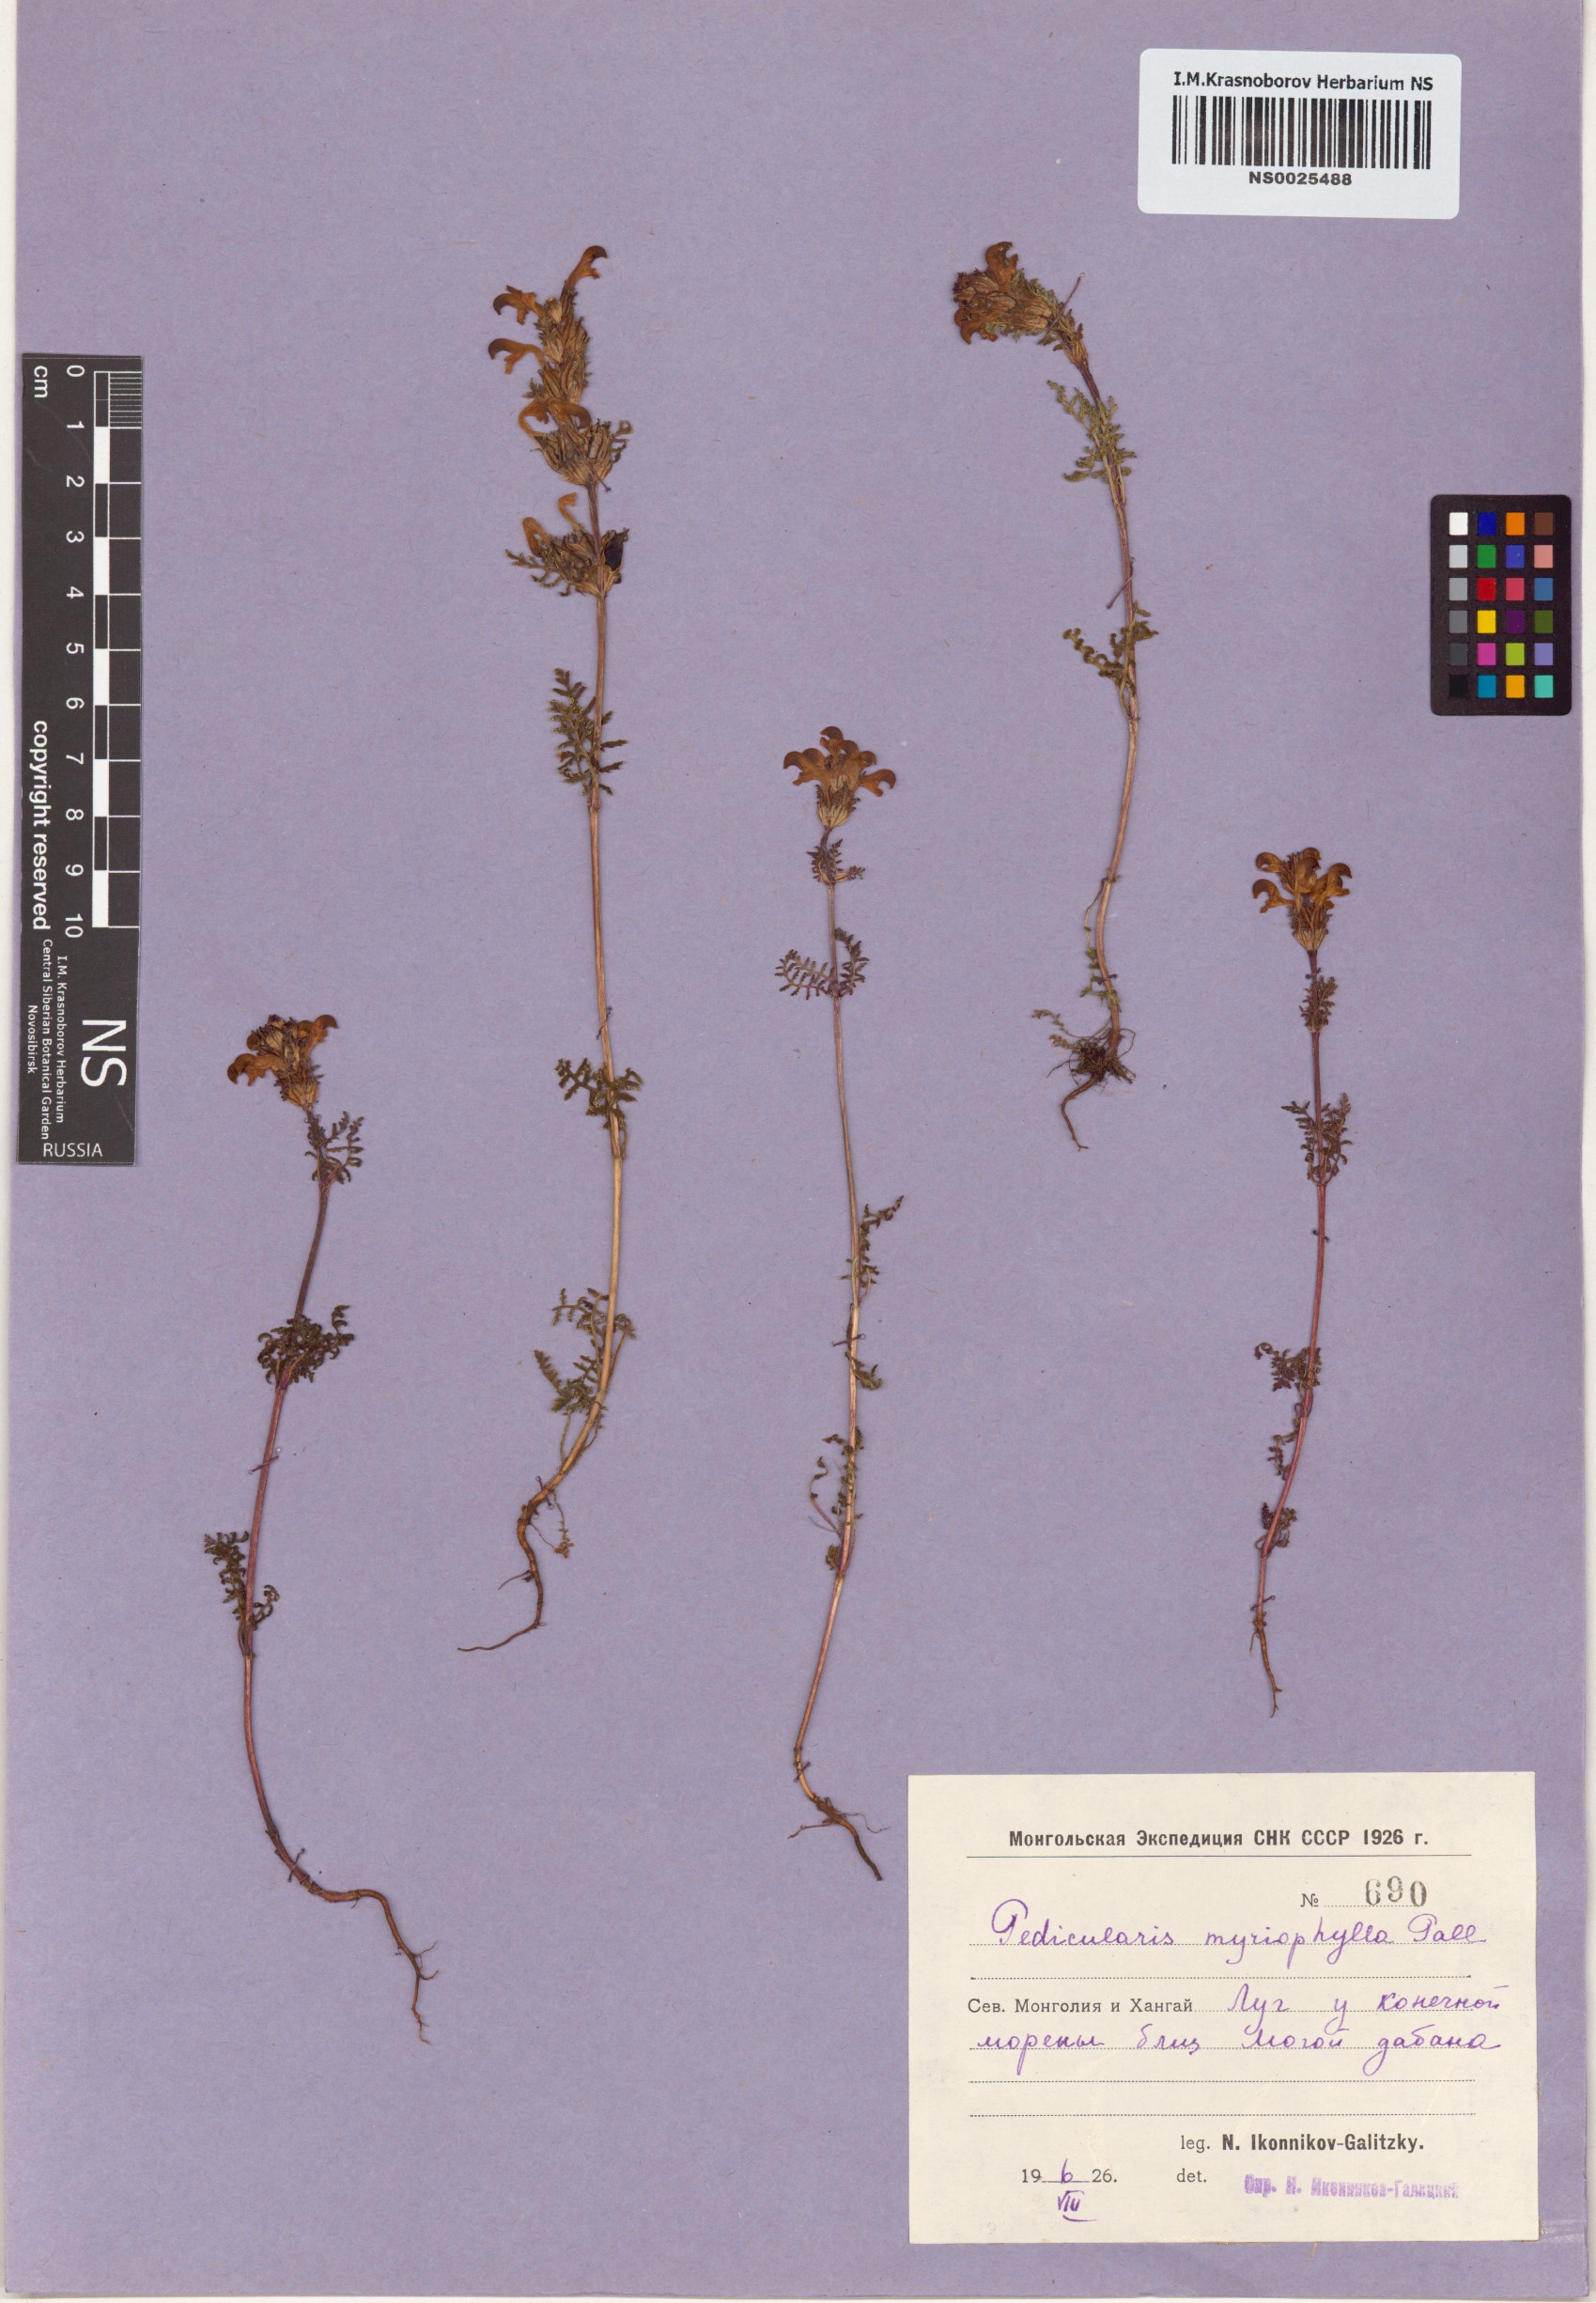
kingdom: Plantae
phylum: Tracheophyta
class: Magnoliopsida
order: Lamiales
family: Orobanchaceae
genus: Pedicularis
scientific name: Pedicularis myriophylla
